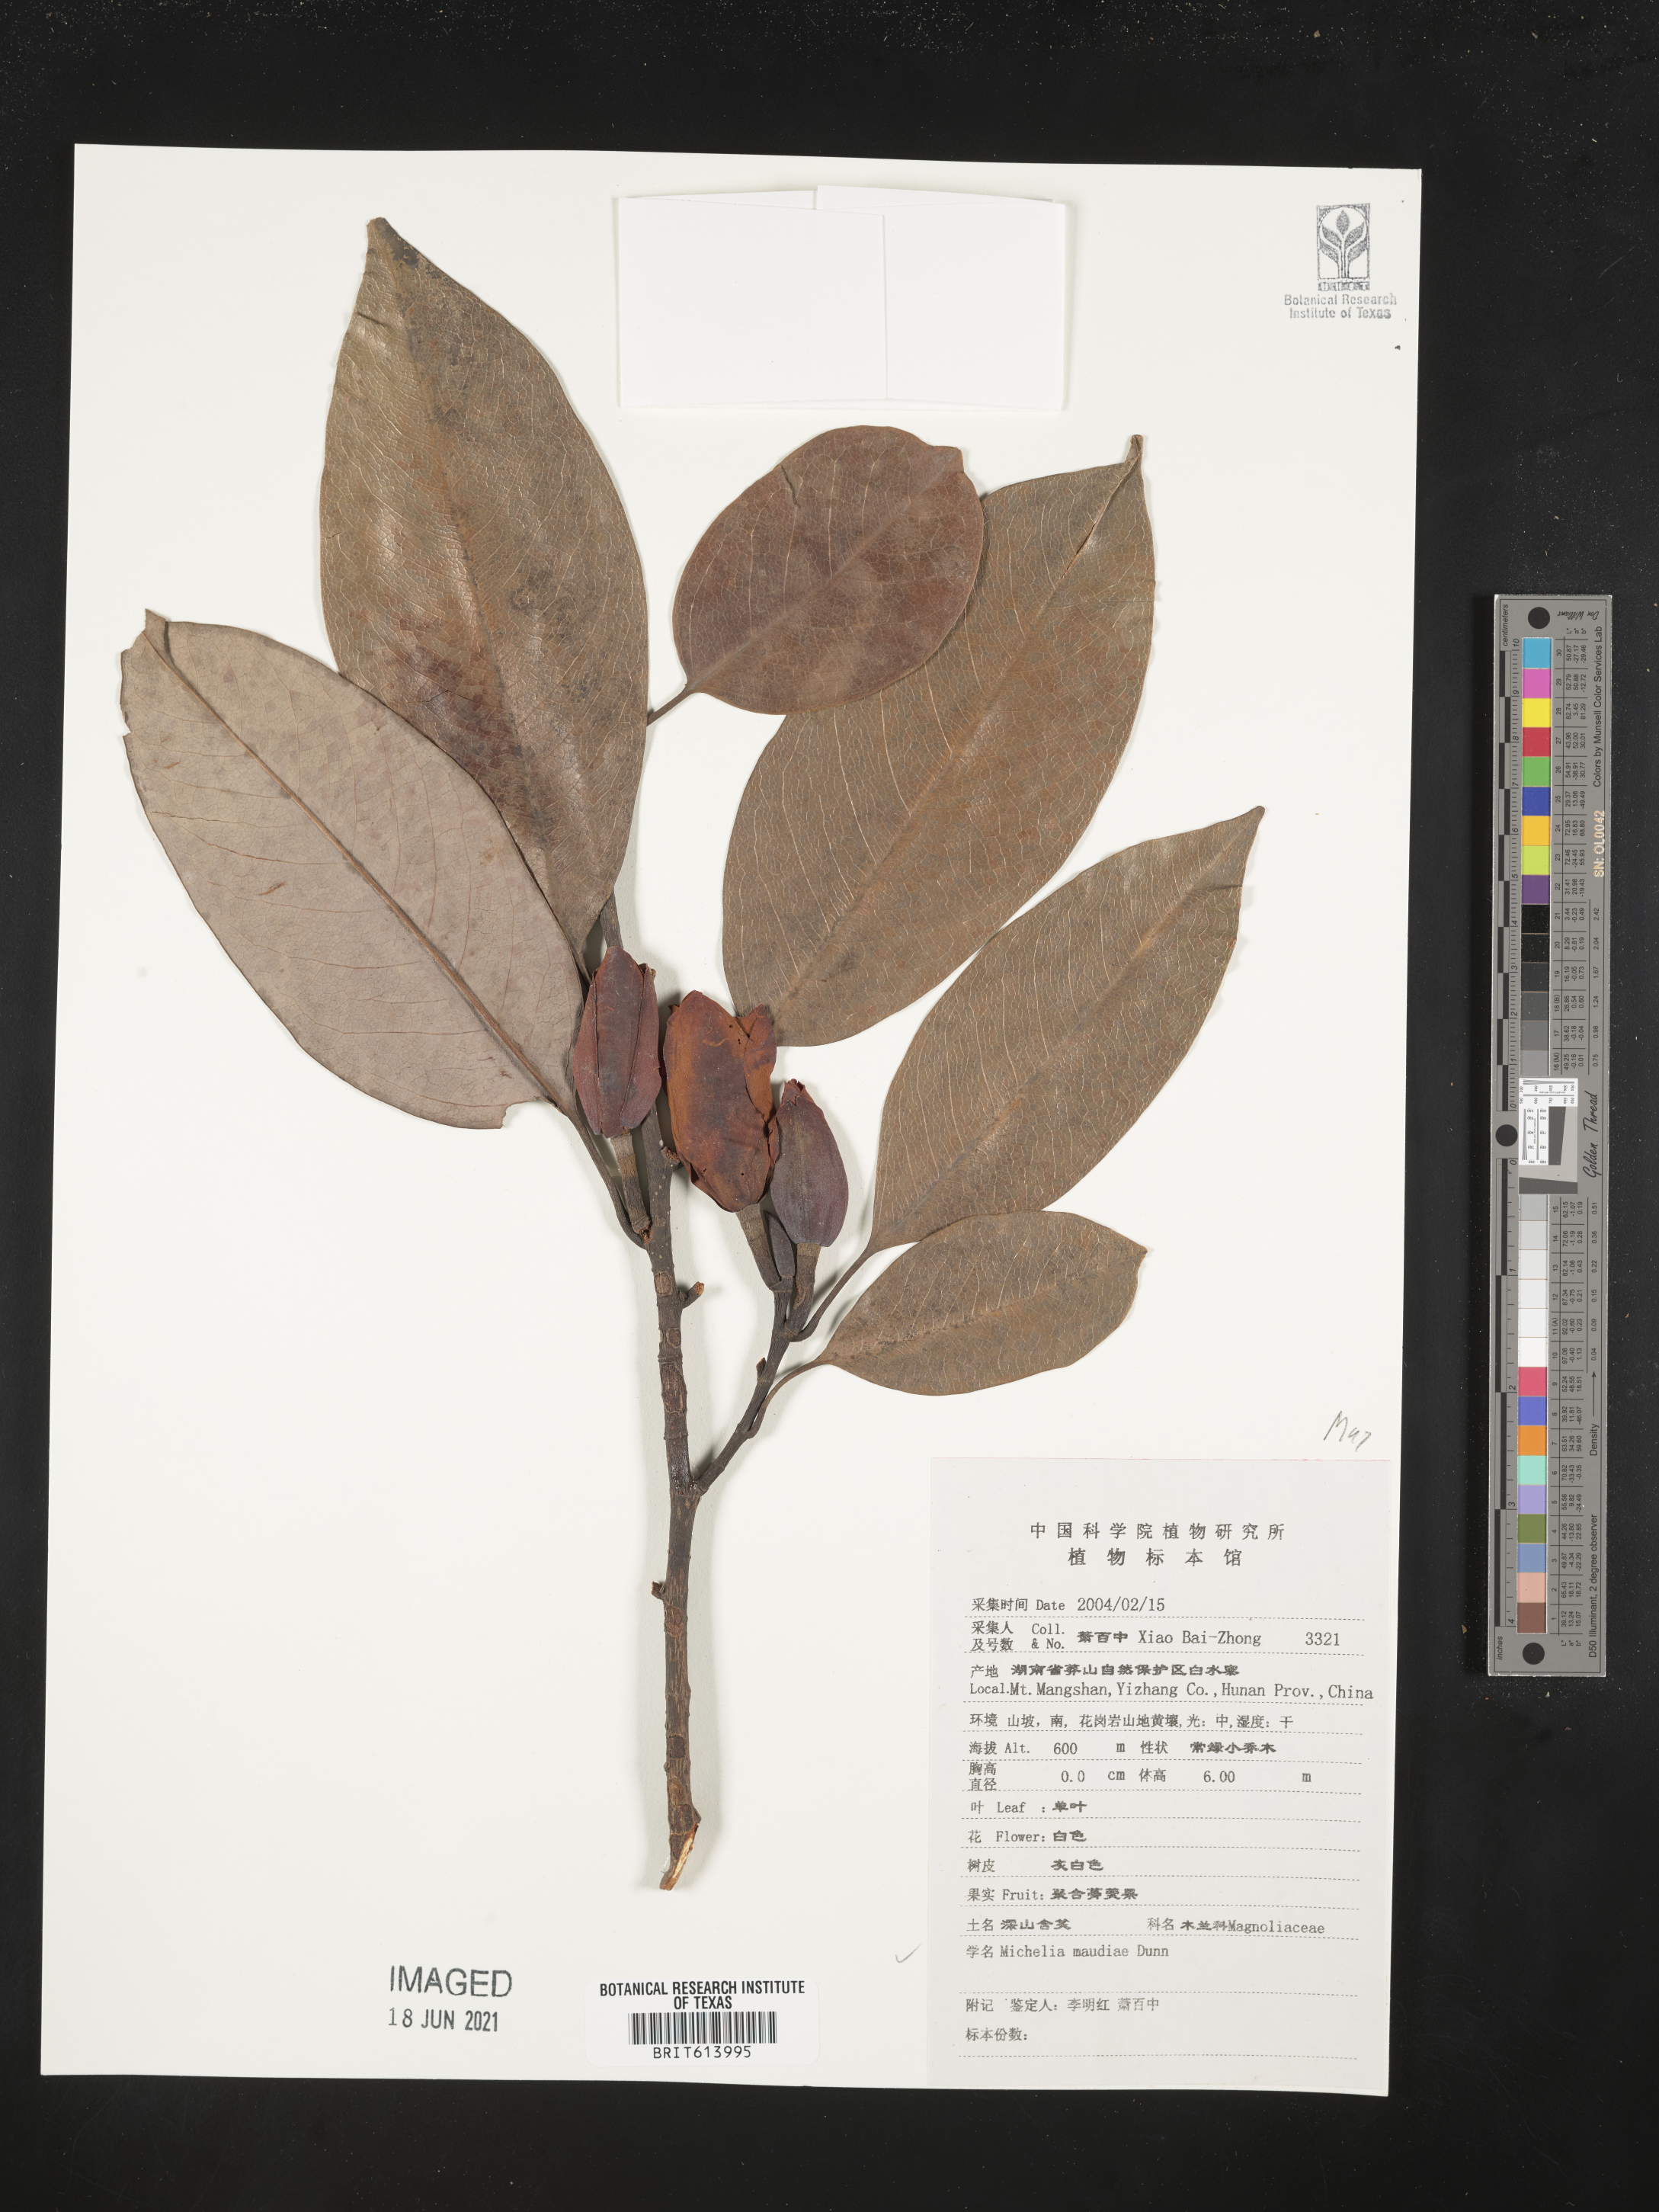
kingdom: Plantae
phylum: Tracheophyta
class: Magnoliopsida
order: Magnoliales
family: Magnoliaceae
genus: Magnolia
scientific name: Magnolia maudiae
